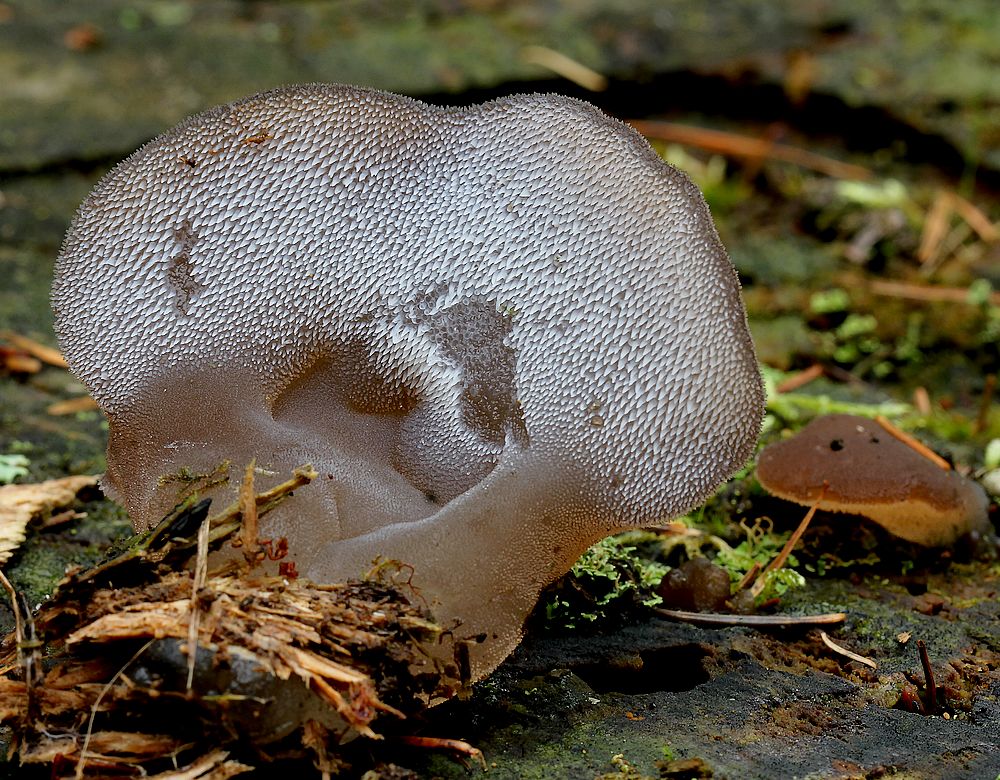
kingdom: Fungi
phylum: Basidiomycota
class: Agaricomycetes
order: Auriculariales
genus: Pseudohydnum
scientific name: Pseudohydnum gelatinosum
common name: bævretand
